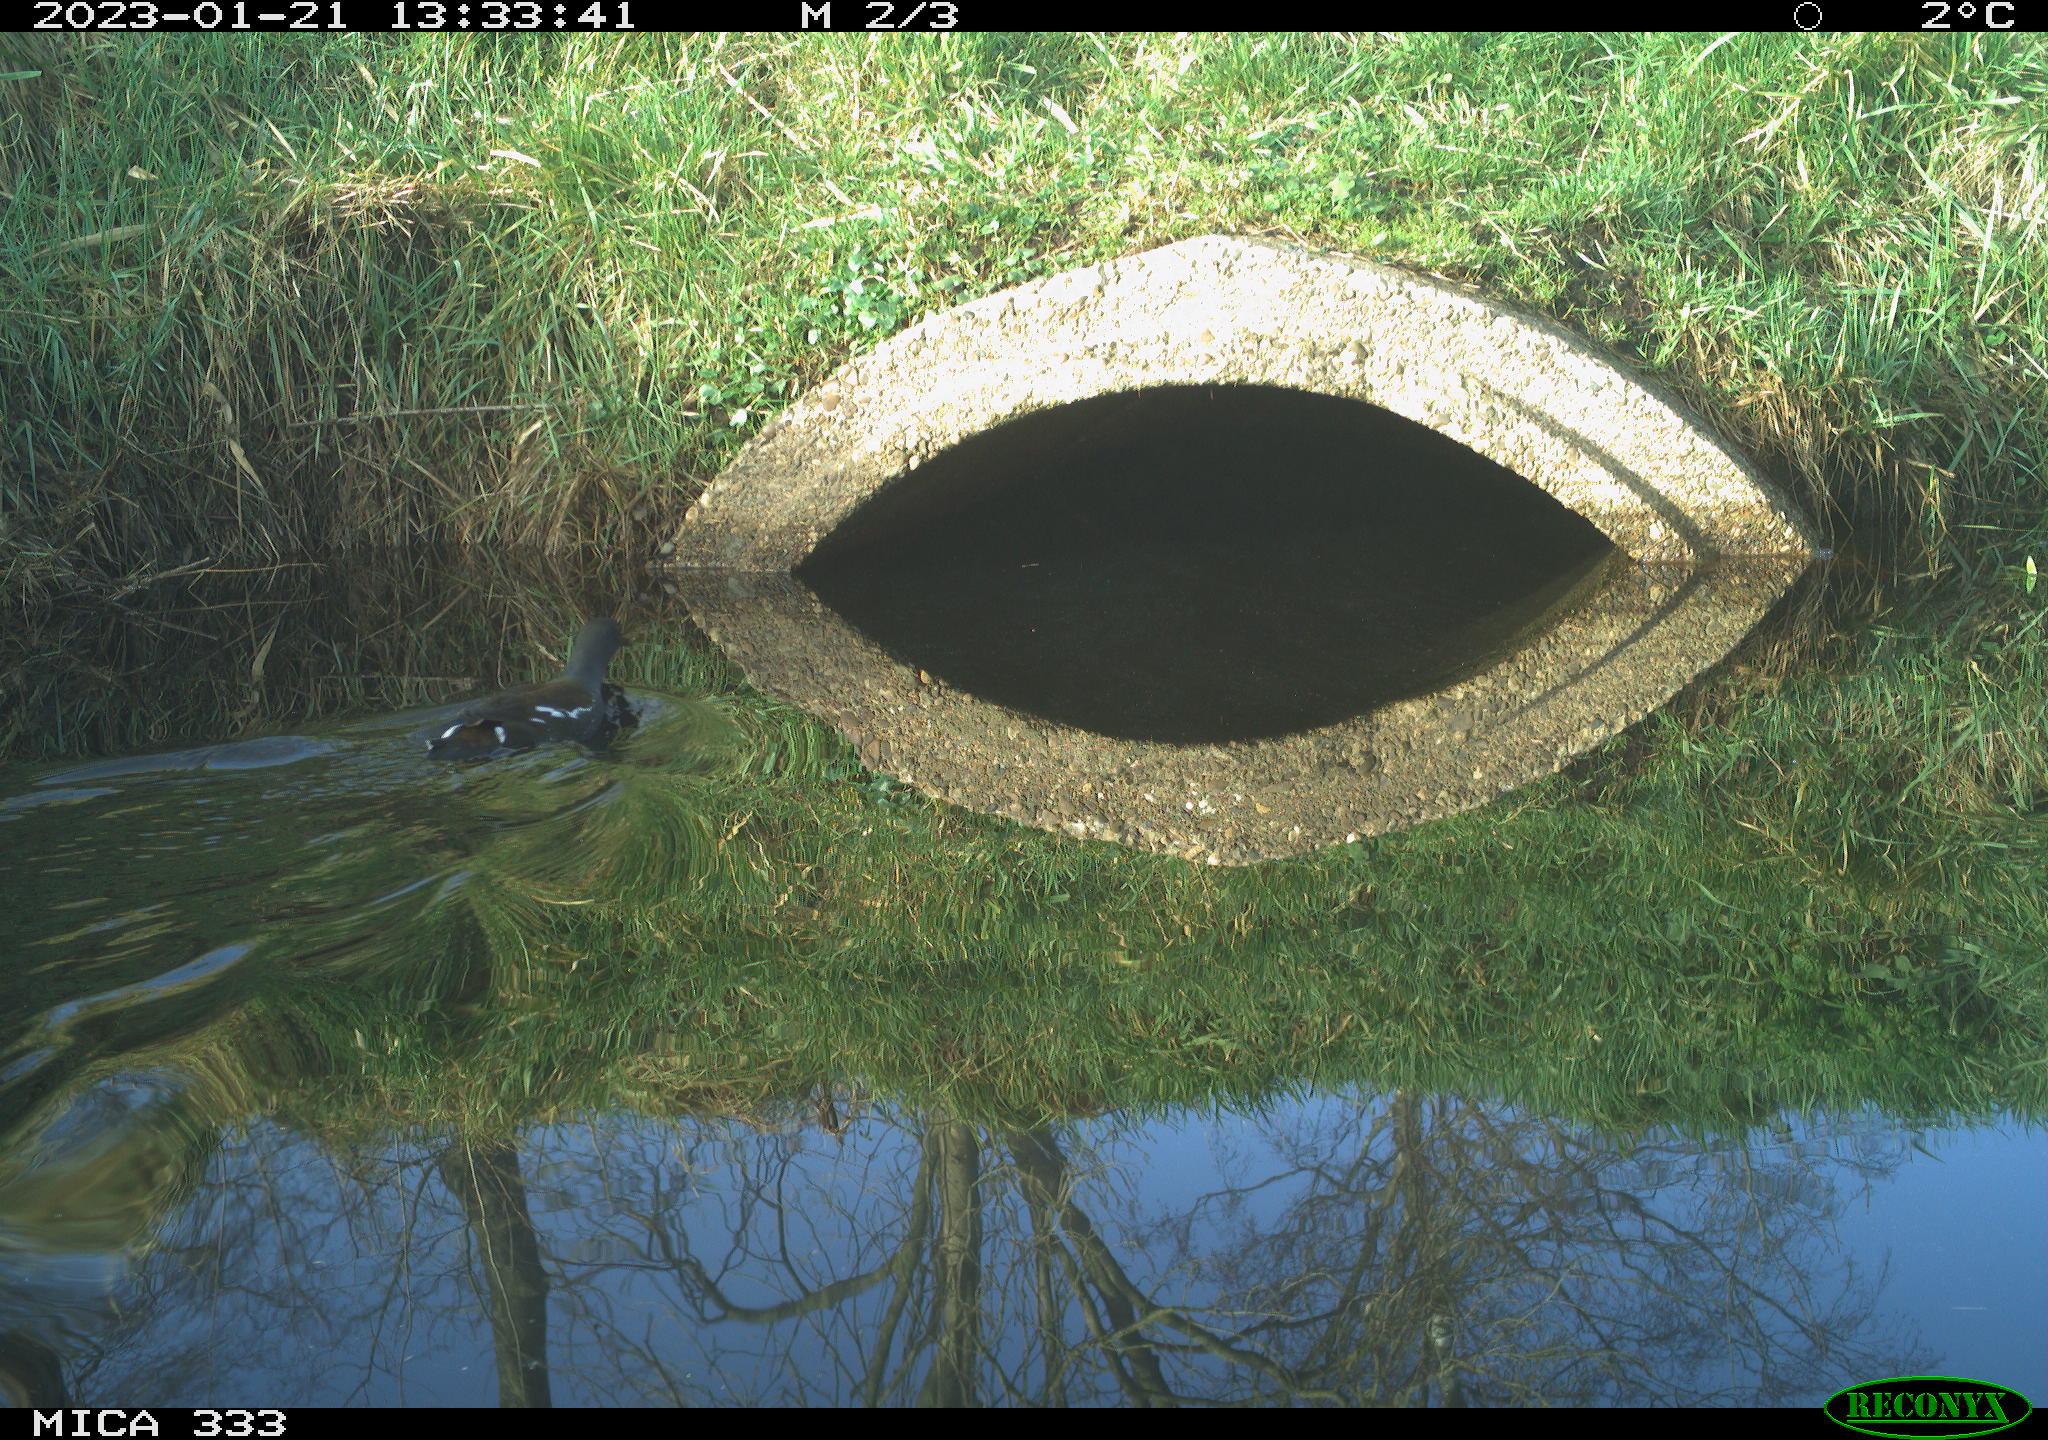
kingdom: Animalia
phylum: Chordata
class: Aves
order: Gruiformes
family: Rallidae
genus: Gallinula
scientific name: Gallinula chloropus
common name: Common moorhen
